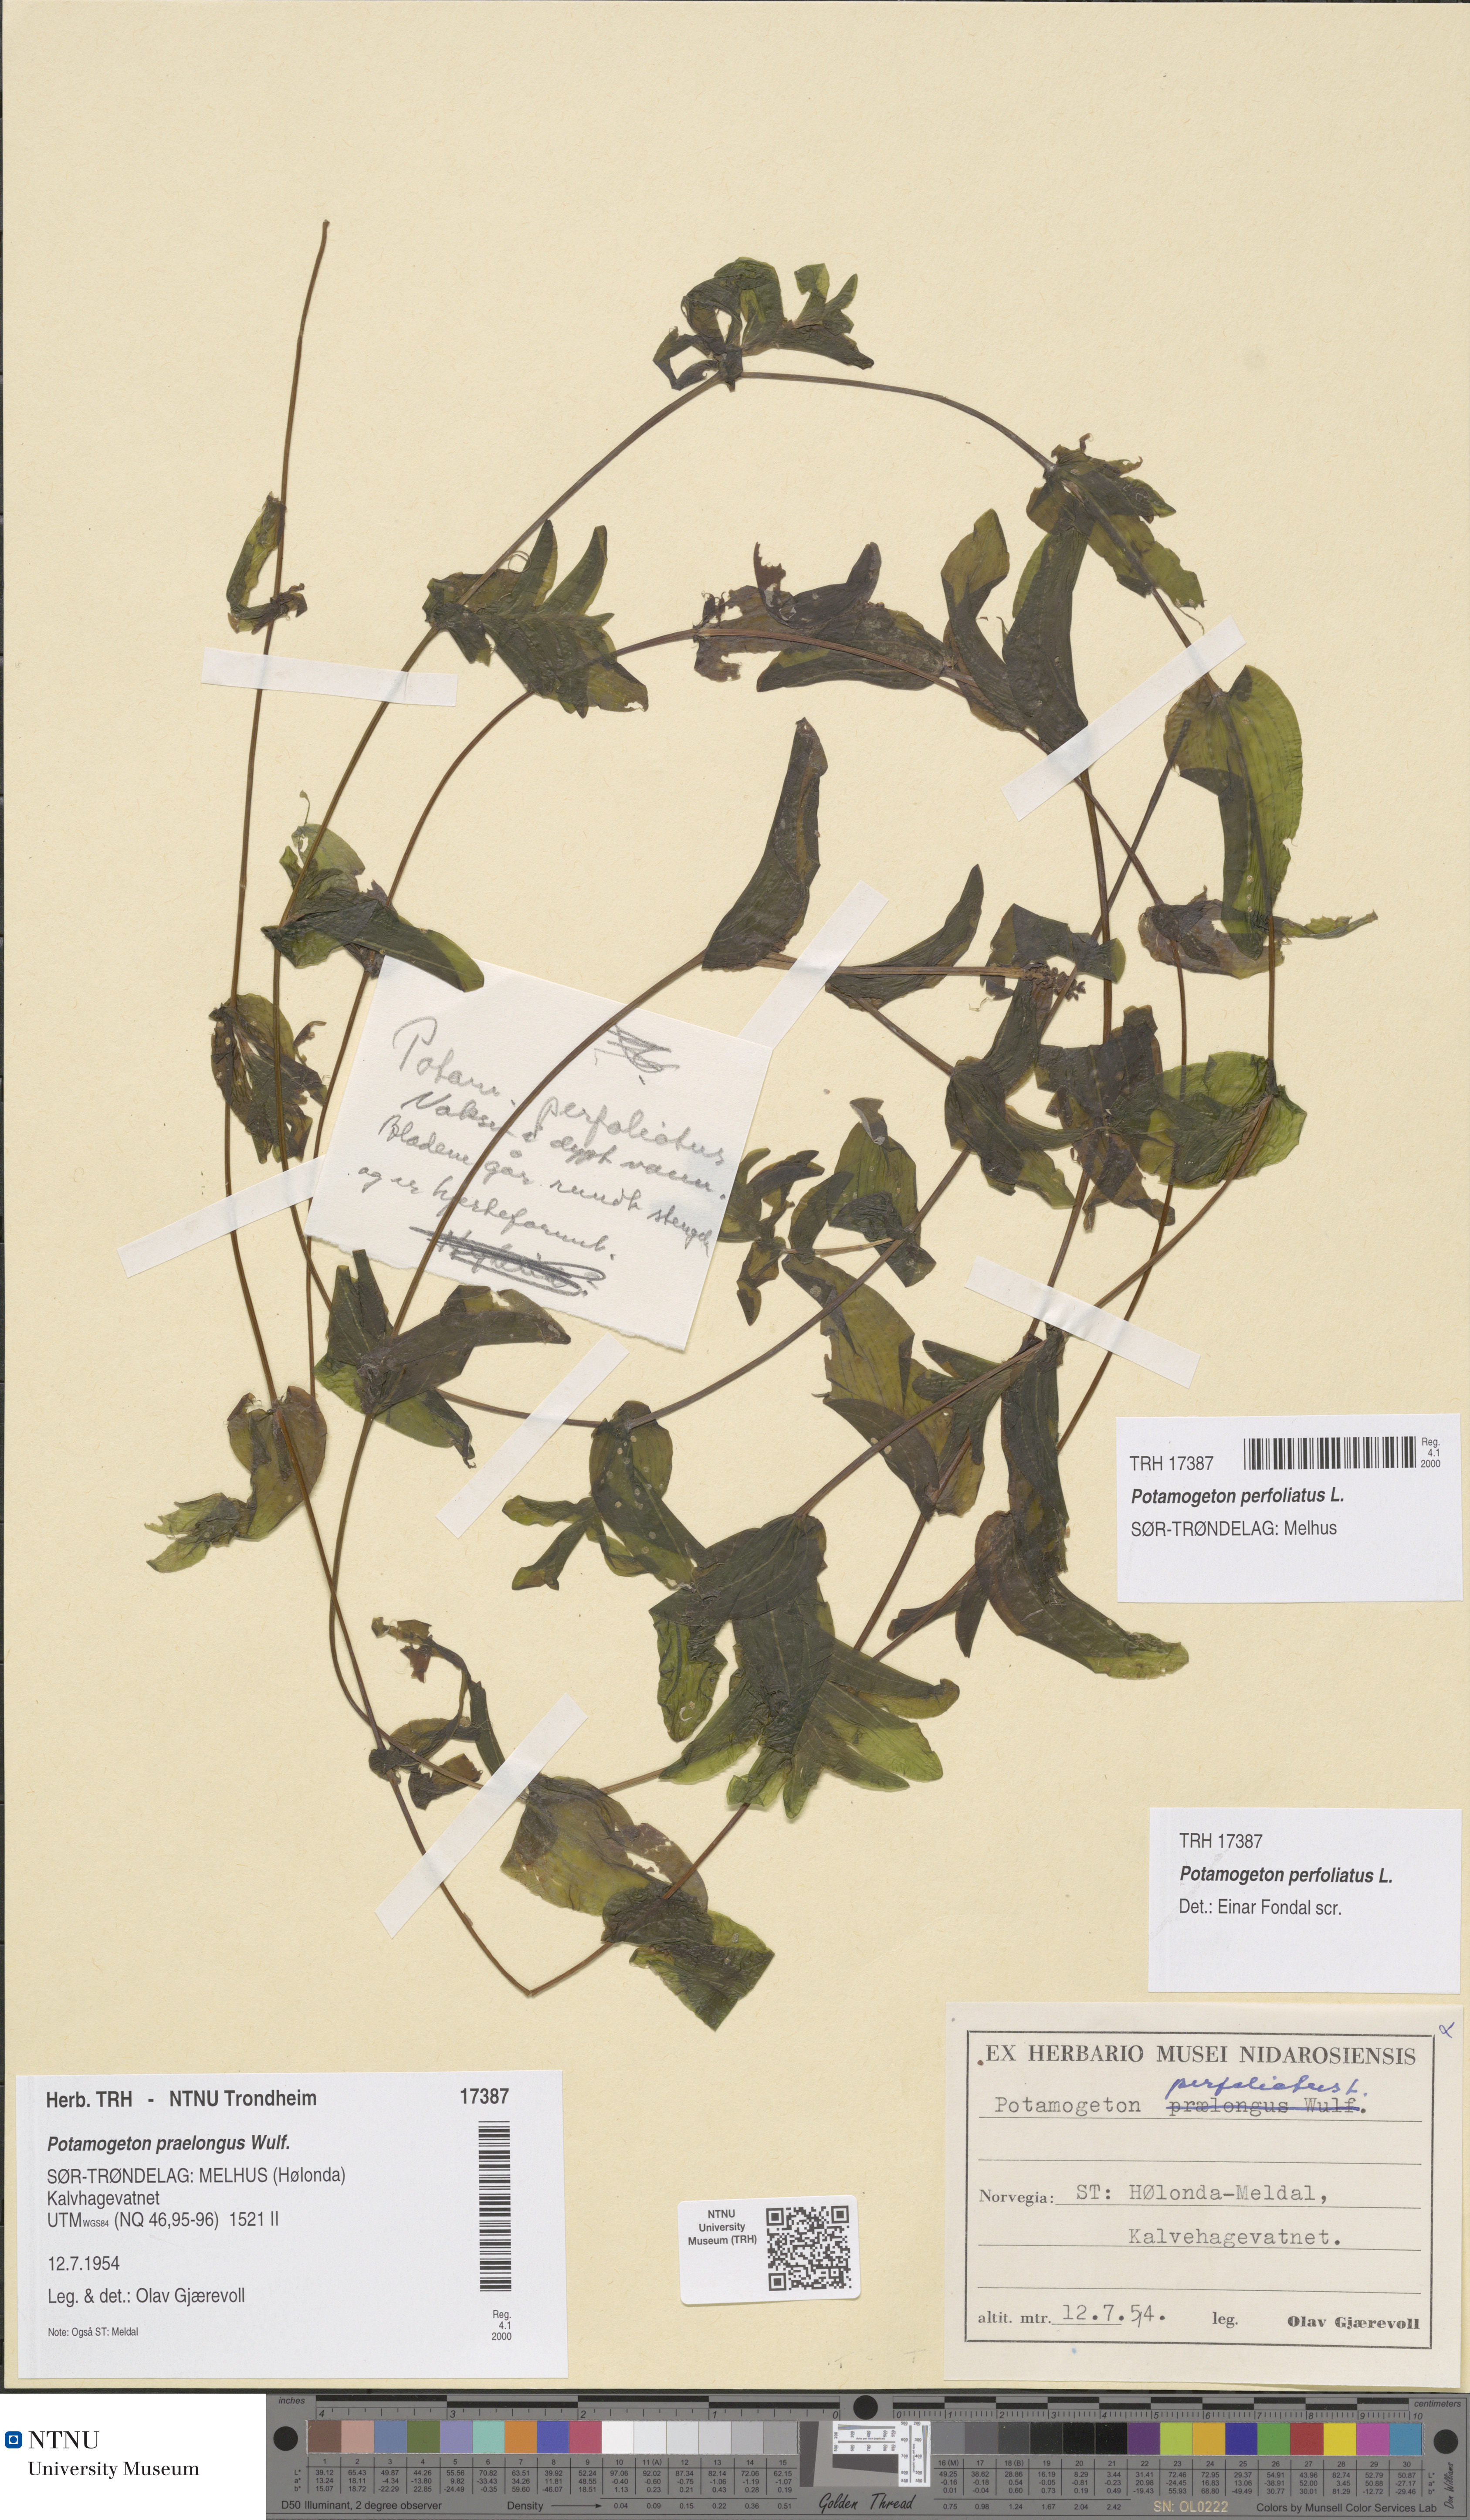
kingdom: Plantae
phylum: Tracheophyta
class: Liliopsida
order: Alismatales
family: Potamogetonaceae
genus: Potamogeton
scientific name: Potamogeton perfoliatus
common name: Perfoliate pondweed
